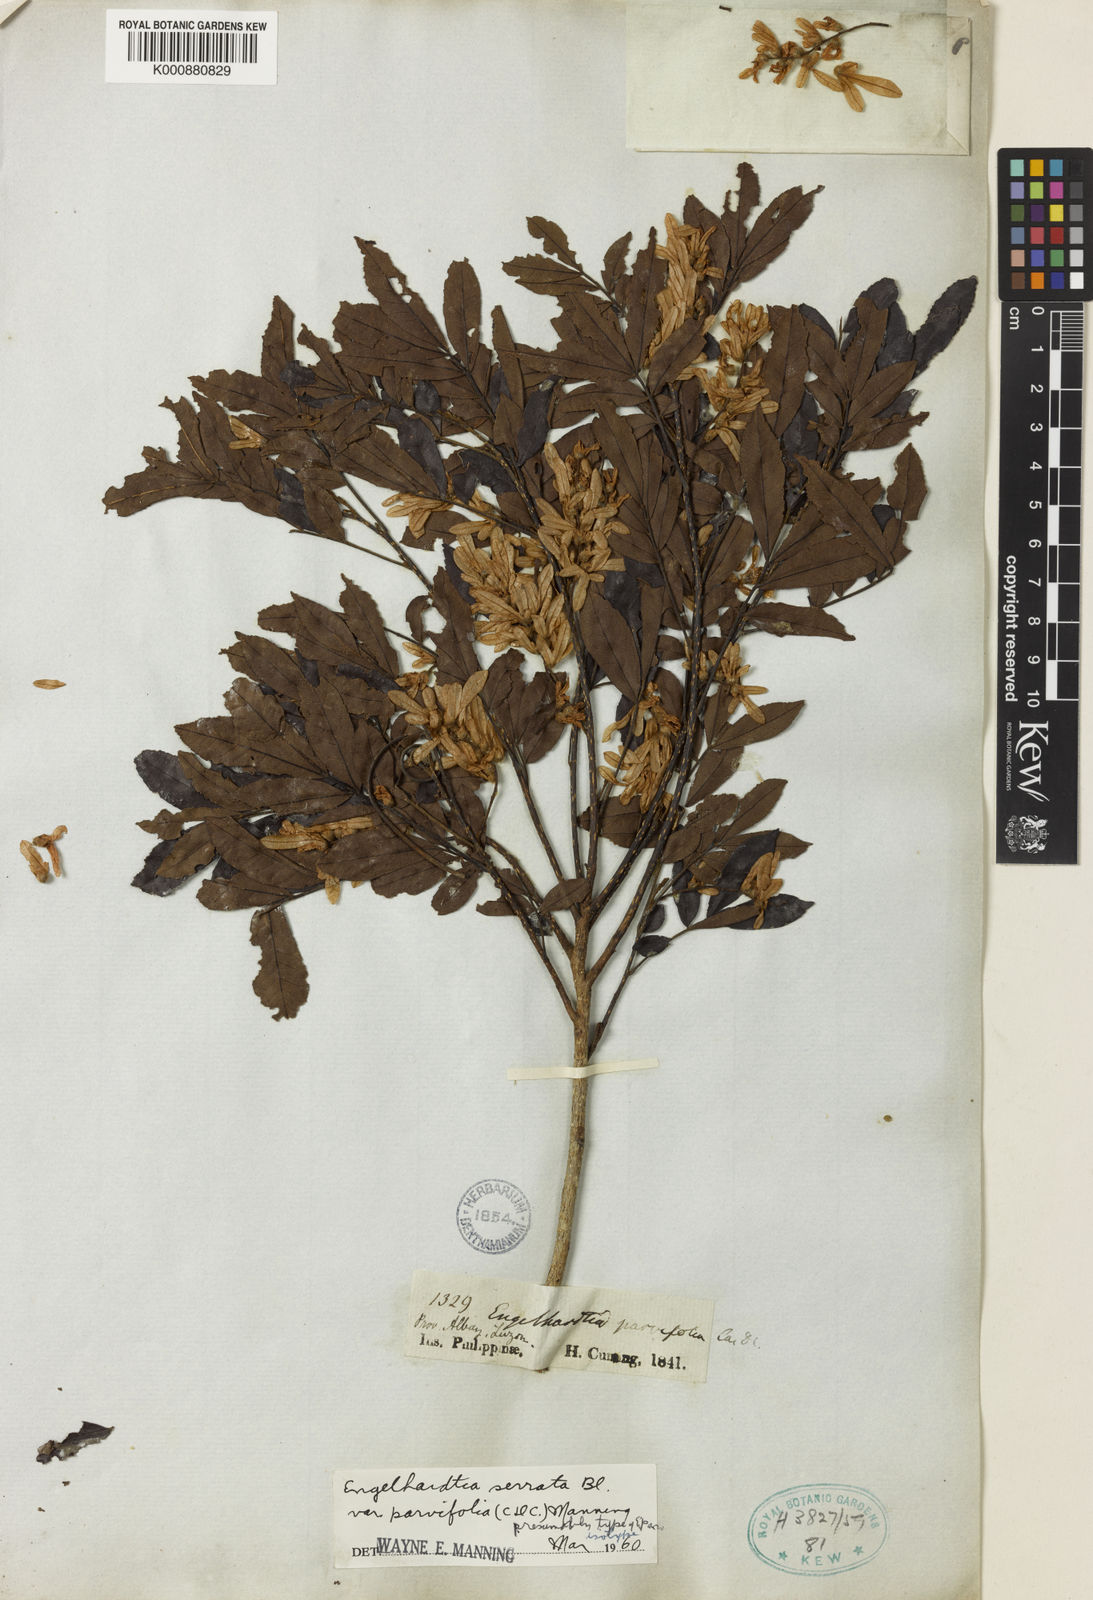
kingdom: Plantae
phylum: Tracheophyta
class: Magnoliopsida
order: Fagales
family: Juglandaceae
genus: Engelhardia
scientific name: Engelhardia serrata
